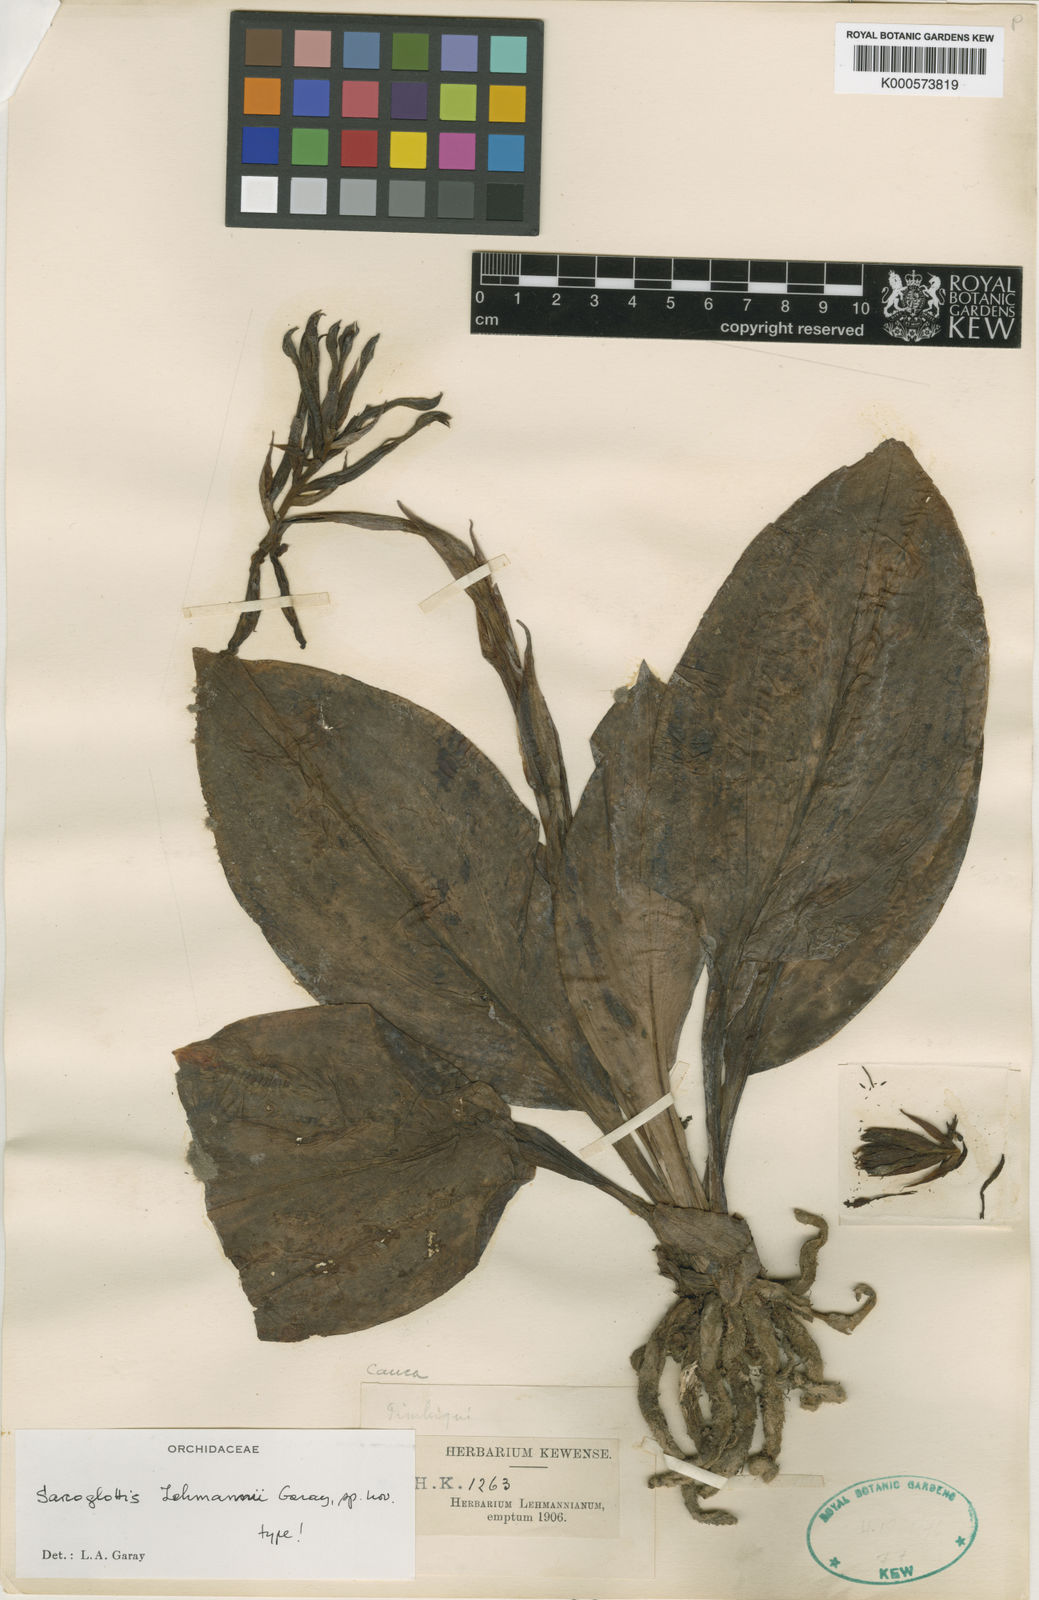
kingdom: Plantae
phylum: Tracheophyta
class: Liliopsida
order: Asparagales
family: Orchidaceae
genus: Sarcoglottis
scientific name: Sarcoglottis lehmannii
